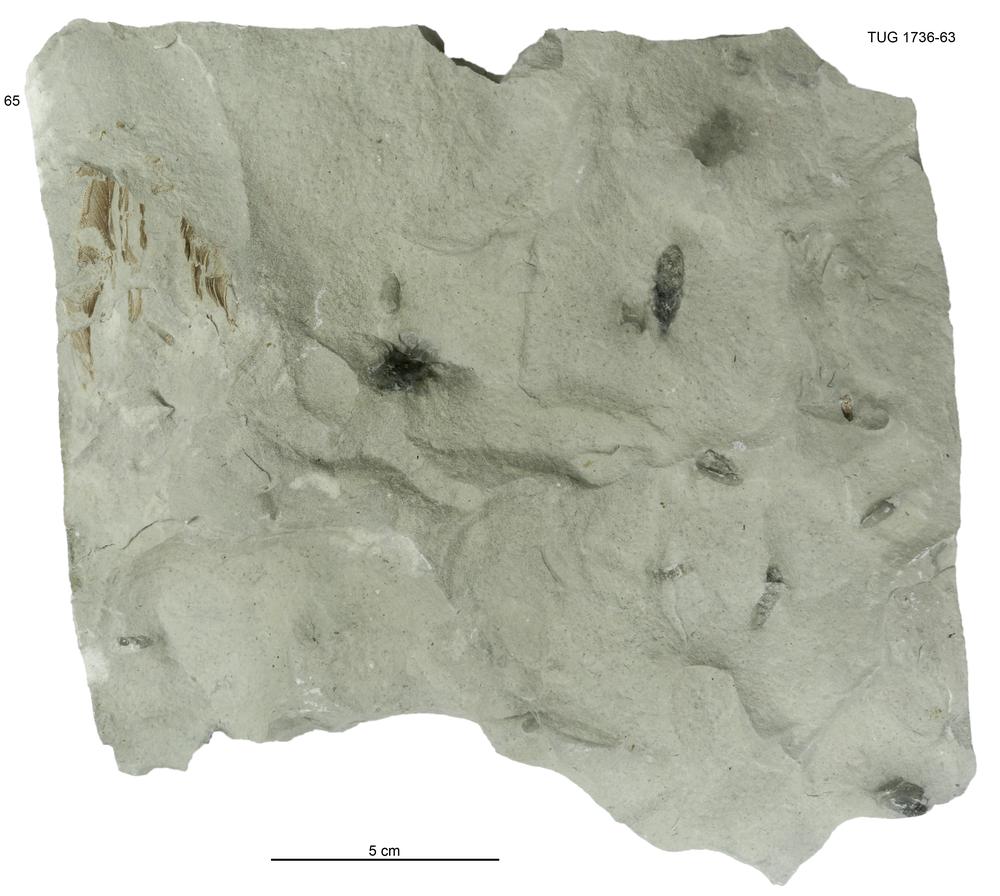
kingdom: Animalia
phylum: Echinodermata
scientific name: Echinodermata
